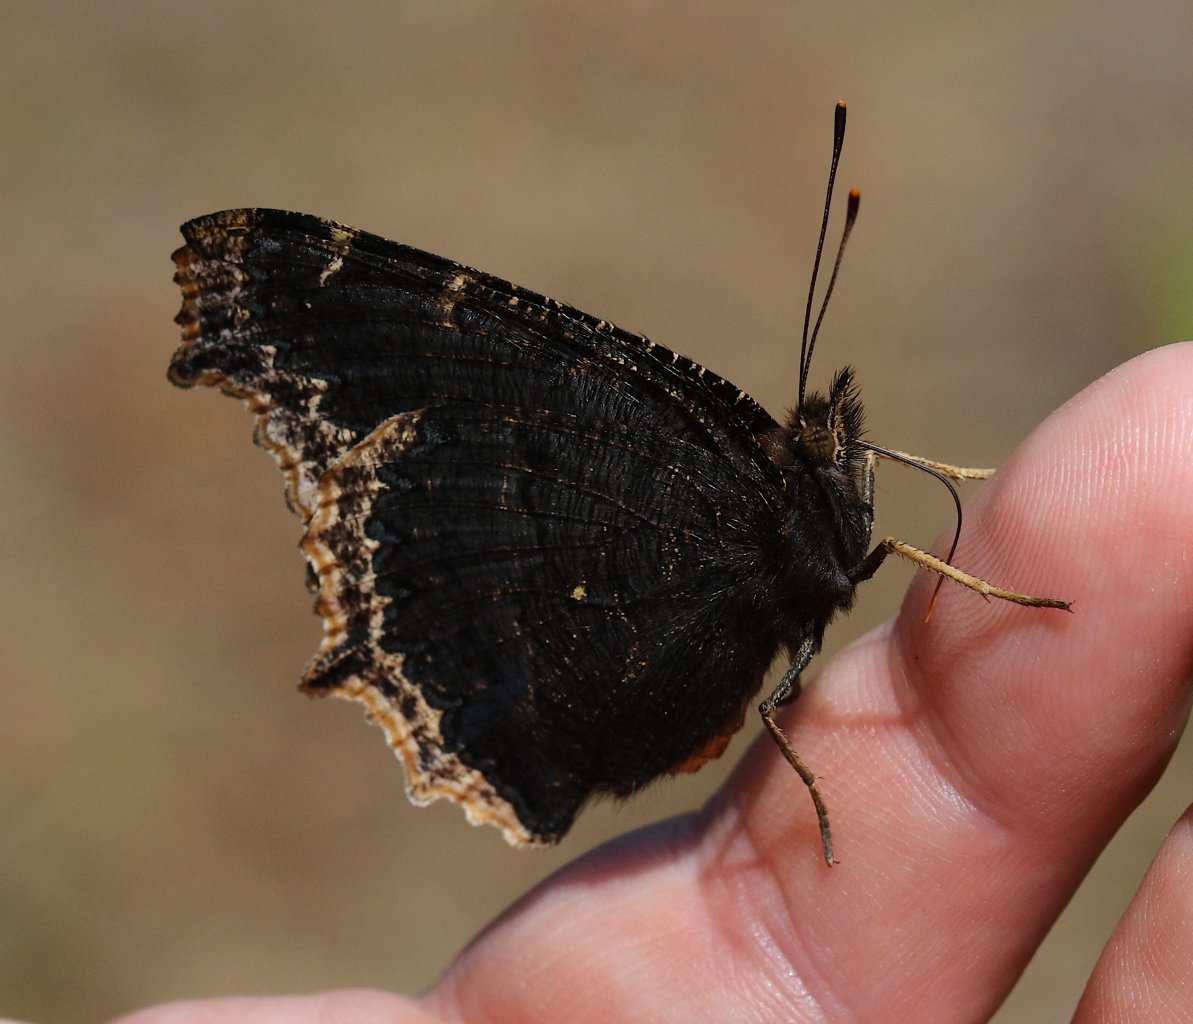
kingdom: Animalia
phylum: Arthropoda
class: Insecta
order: Lepidoptera
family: Nymphalidae
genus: Nymphalis
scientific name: Nymphalis antiopa
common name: Mourning Cloak
